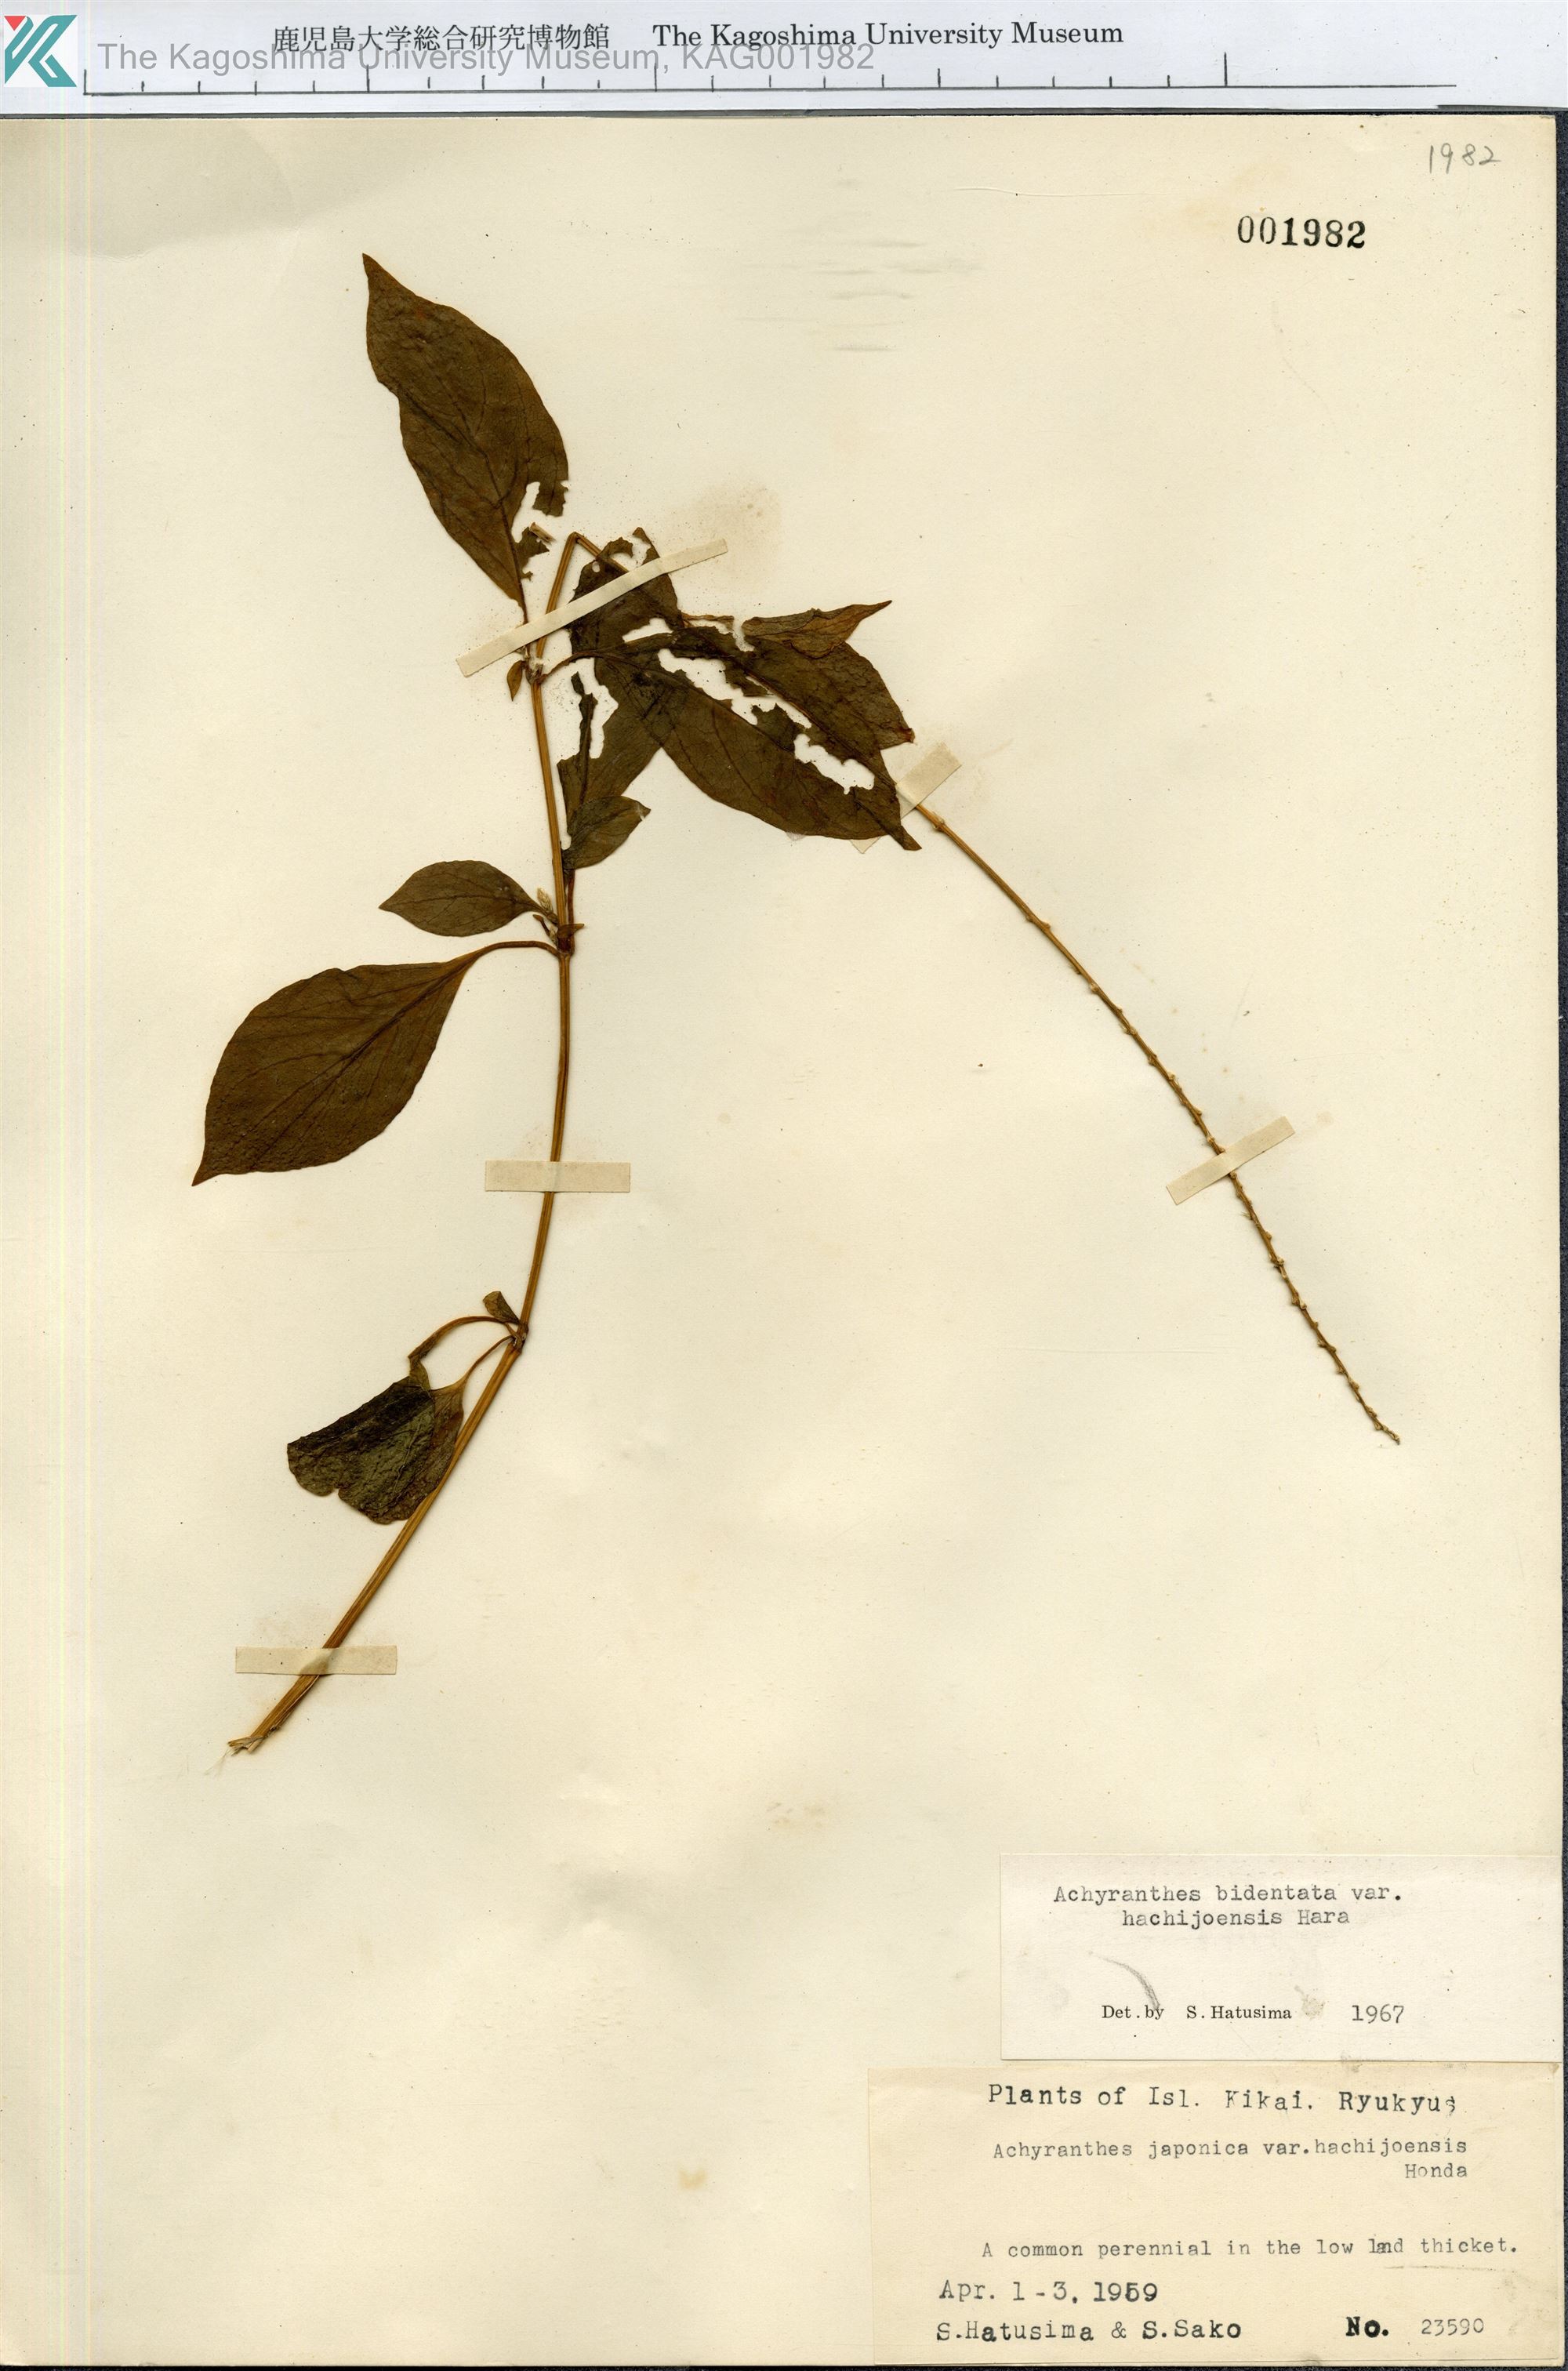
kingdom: Plantae
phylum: Tracheophyta
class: Magnoliopsida
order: Caryophyllales
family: Amaranthaceae
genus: Achyranthes
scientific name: Achyranthes bidentata
